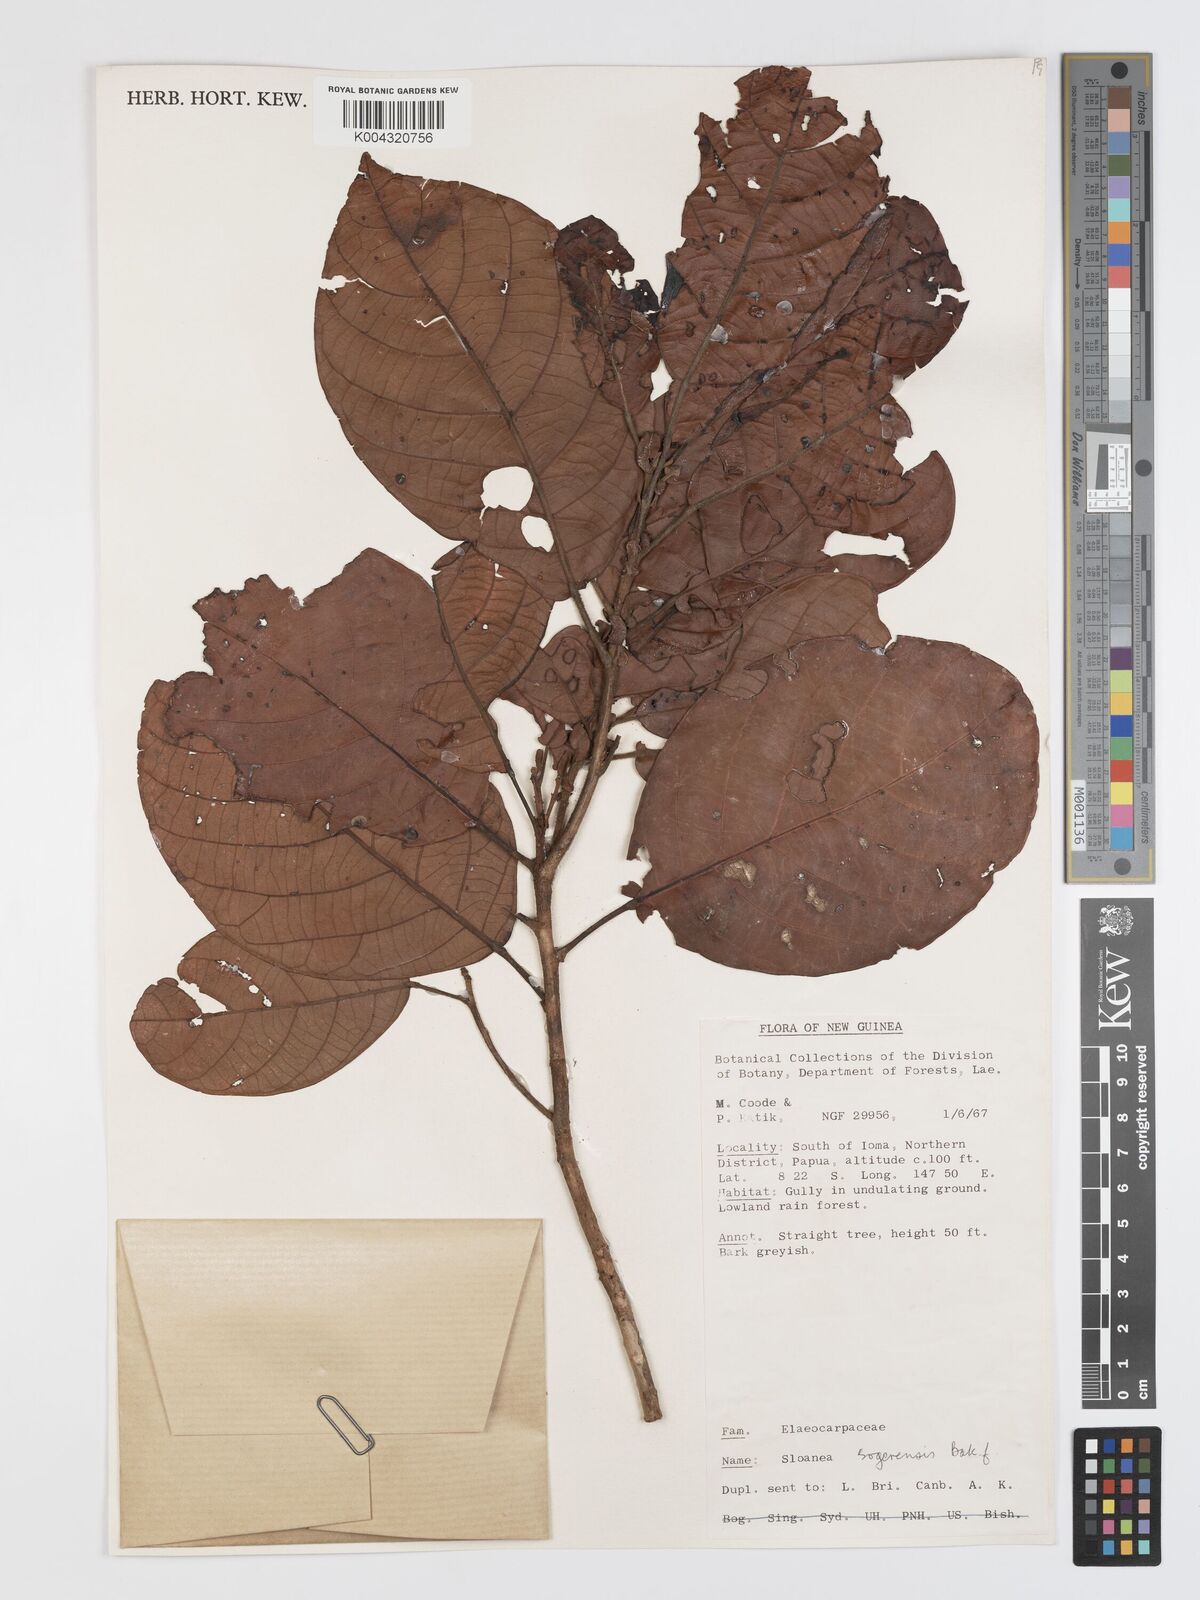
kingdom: Plantae
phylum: Tracheophyta
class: Magnoliopsida
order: Oxalidales
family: Elaeocarpaceae
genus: Sloanea
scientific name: Sloanea sogerensis
